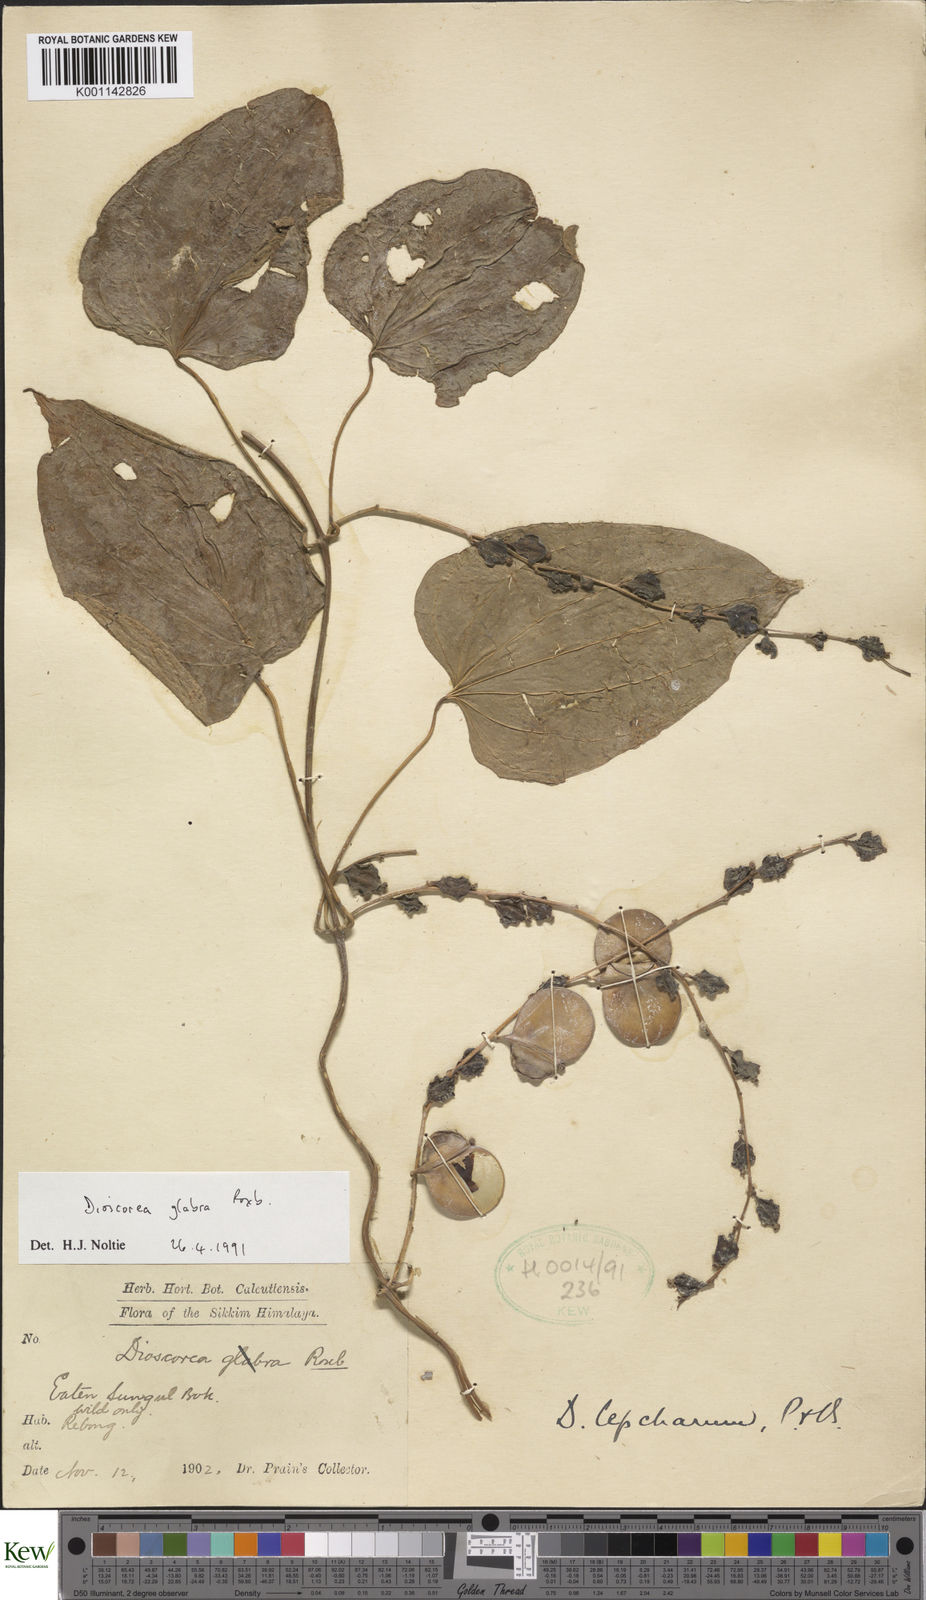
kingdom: Plantae
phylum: Tracheophyta
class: Liliopsida
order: Dioscoreales
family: Dioscoreaceae
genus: Dioscorea
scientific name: Dioscorea glabra
